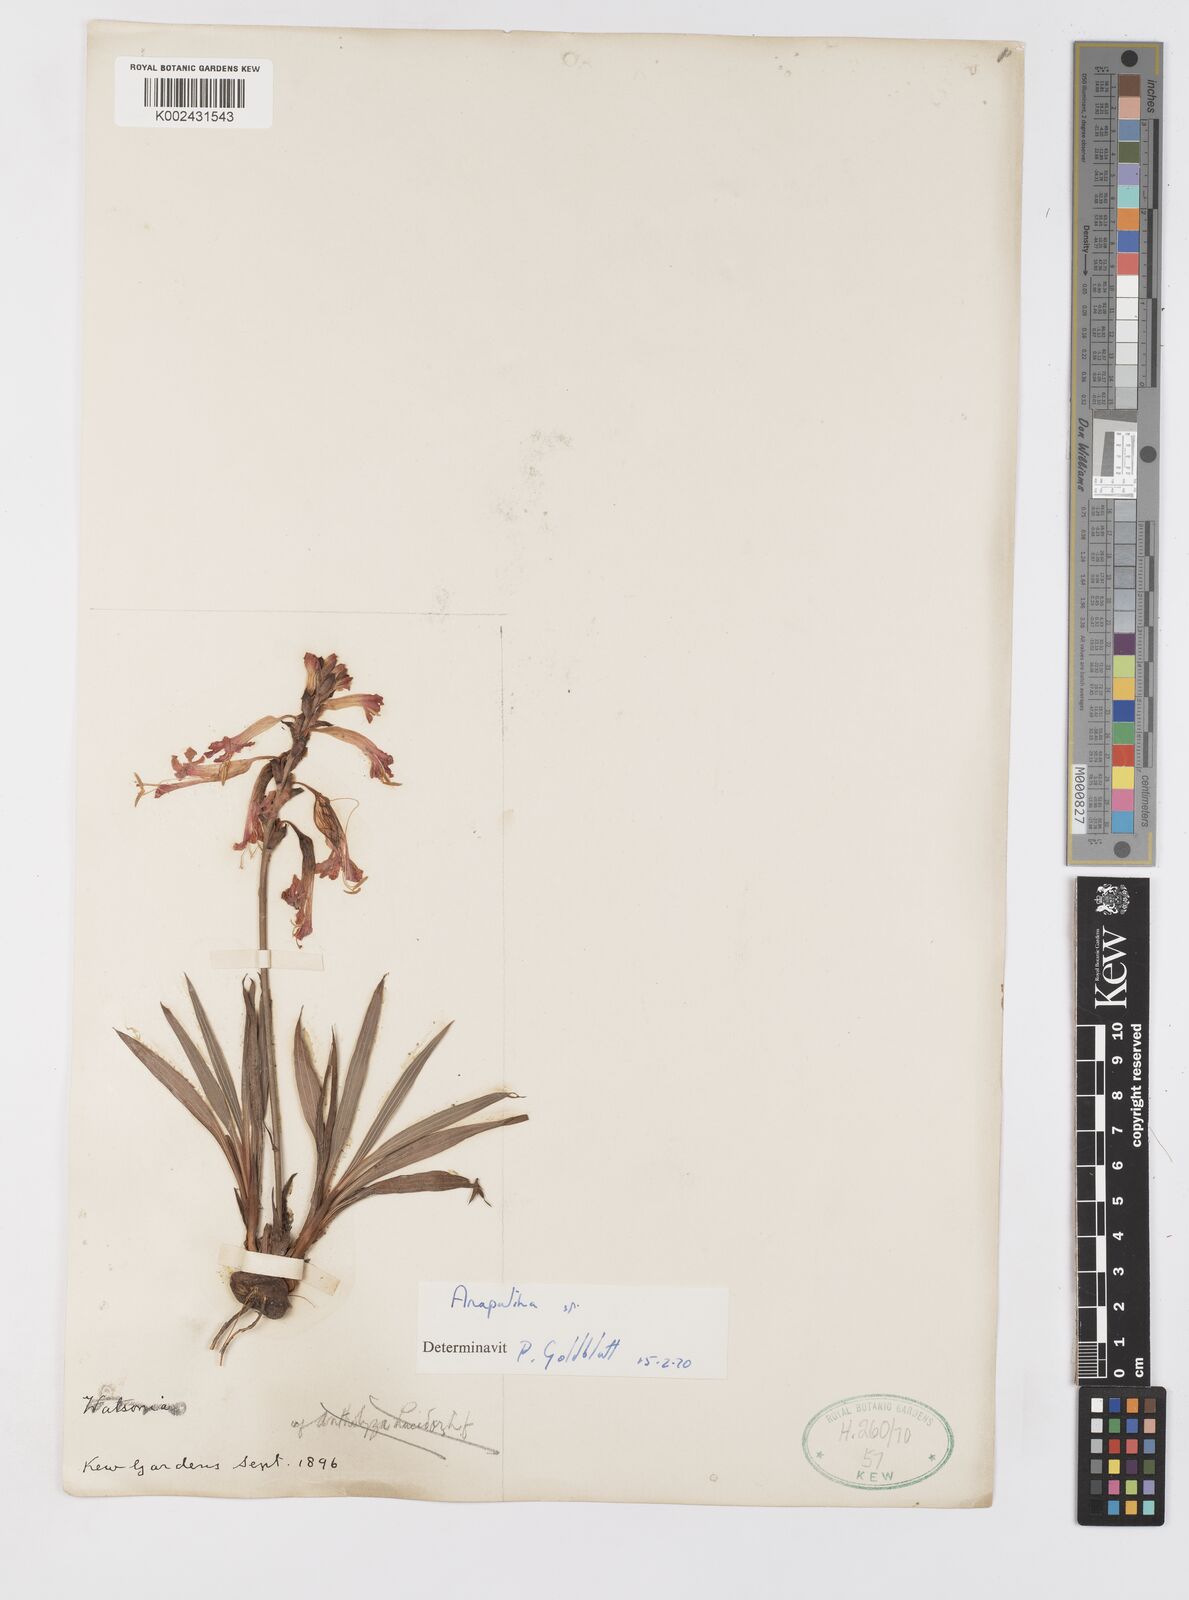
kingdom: Plantae
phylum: Tracheophyta
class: Liliopsida
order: Asparagales
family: Iridaceae
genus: Tritoniopsis
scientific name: Tritoniopsis
